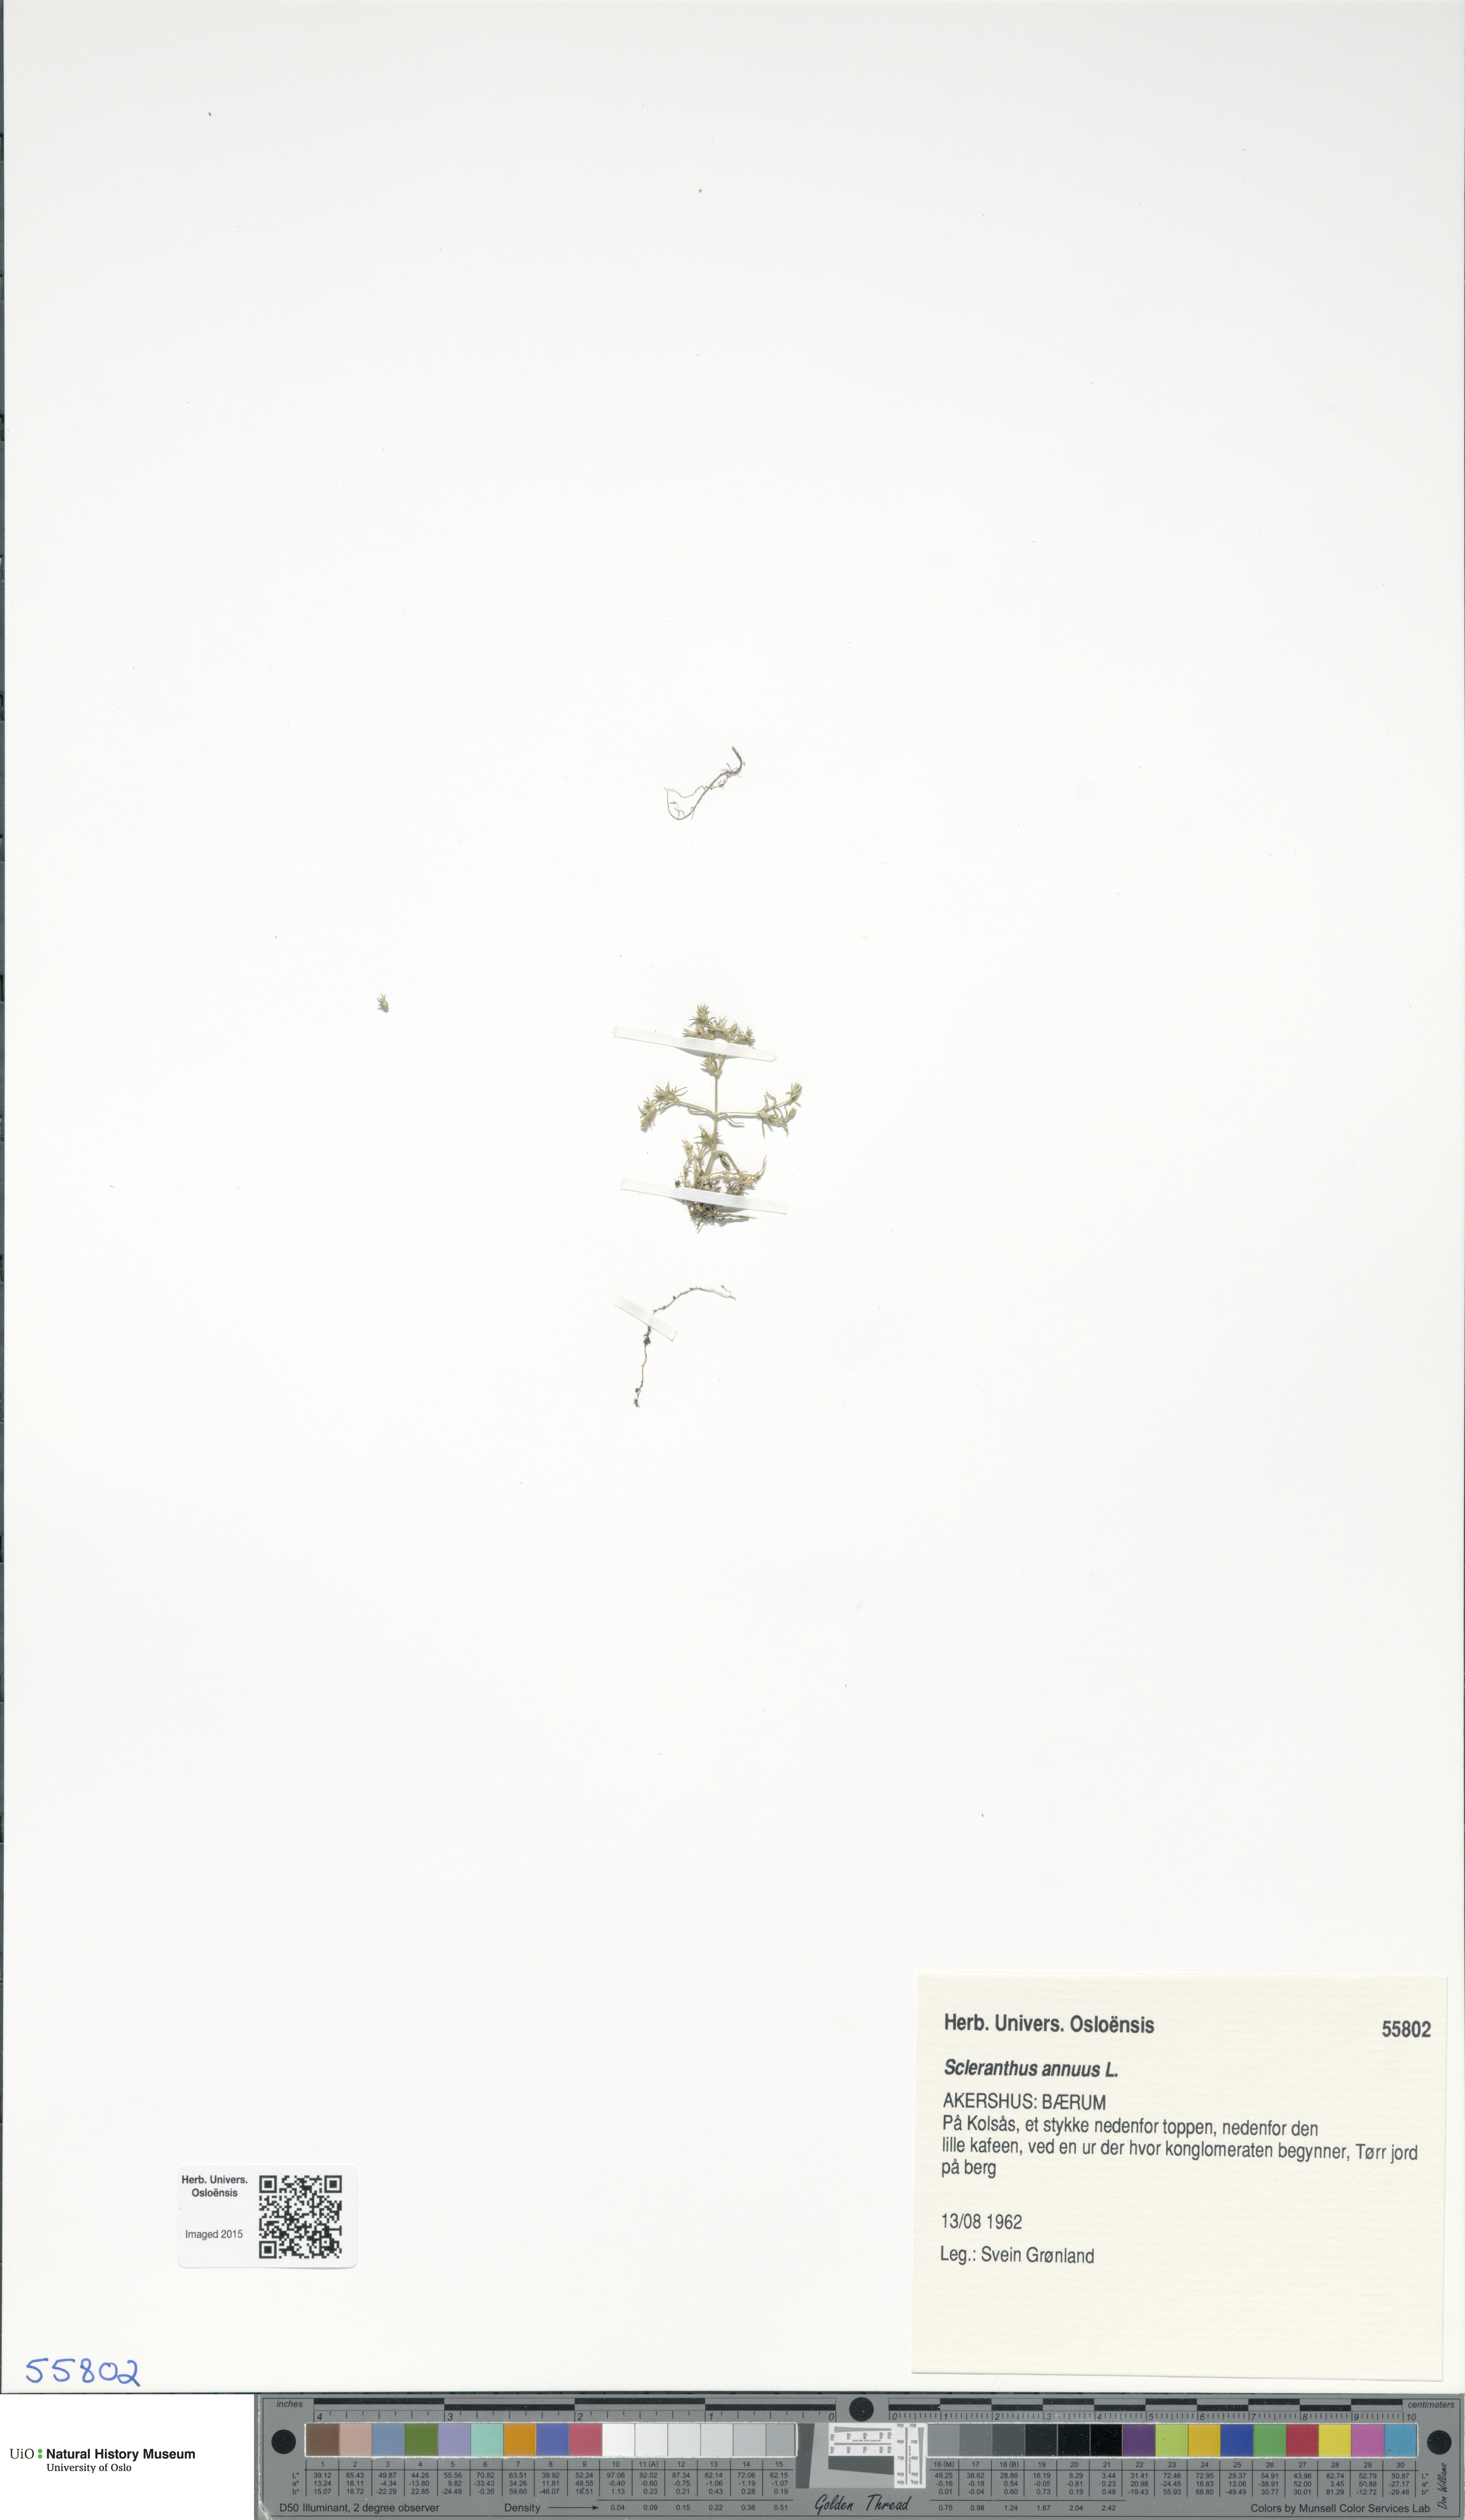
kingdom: Plantae
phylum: Tracheophyta
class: Magnoliopsida
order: Caryophyllales
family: Caryophyllaceae
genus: Scleranthus
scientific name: Scleranthus annuus
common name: Annual knawel
